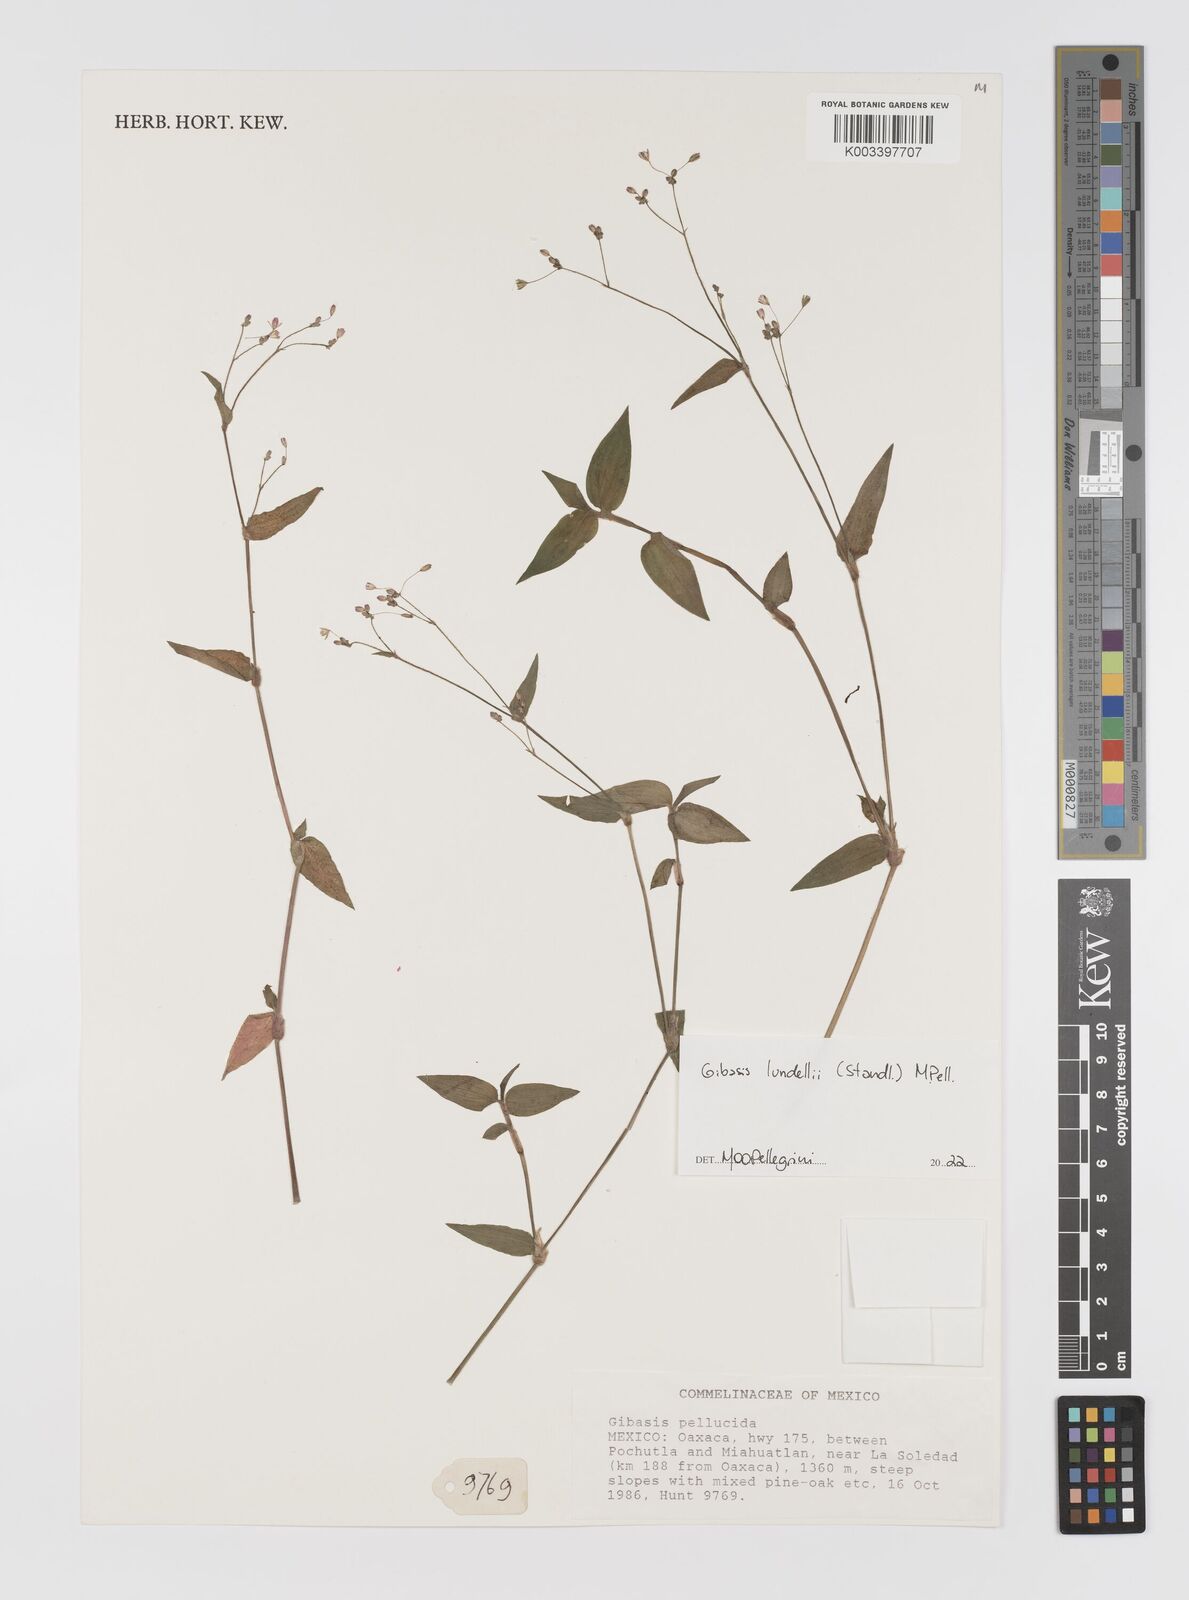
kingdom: Plantae
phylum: Tracheophyta
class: Liliopsida
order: Commelinales
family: Commelinaceae
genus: Gibasis
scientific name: Gibasis
